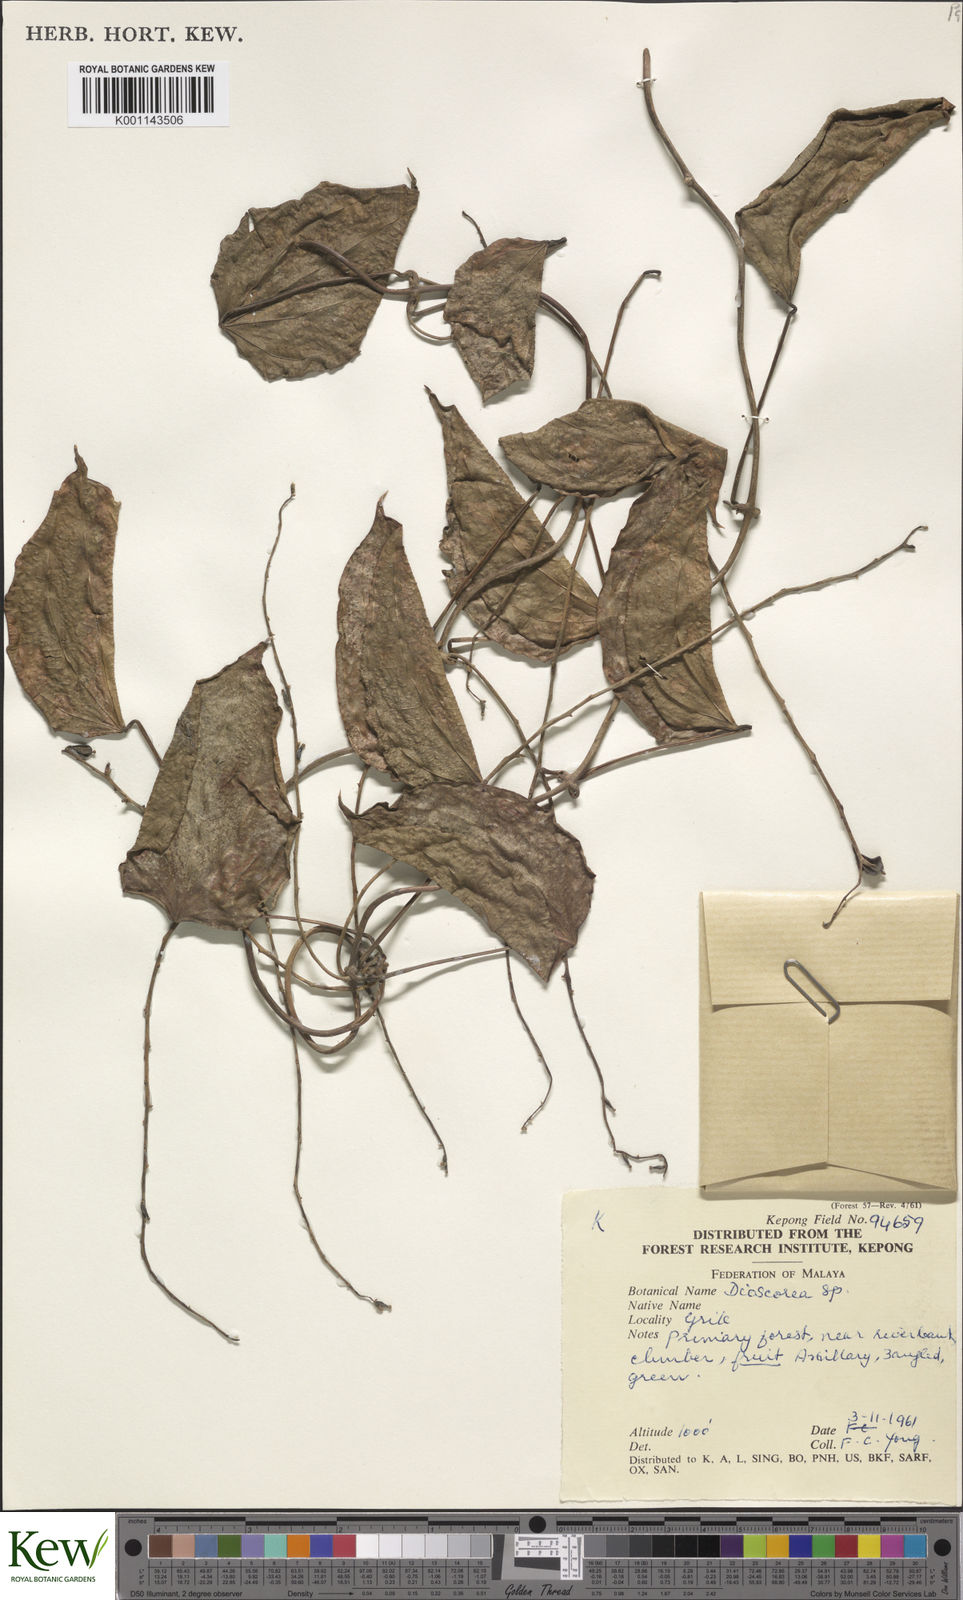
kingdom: Plantae
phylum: Tracheophyta
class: Liliopsida
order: Dioscoreales
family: Dioscoreaceae
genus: Dioscorea
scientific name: Dioscorea
